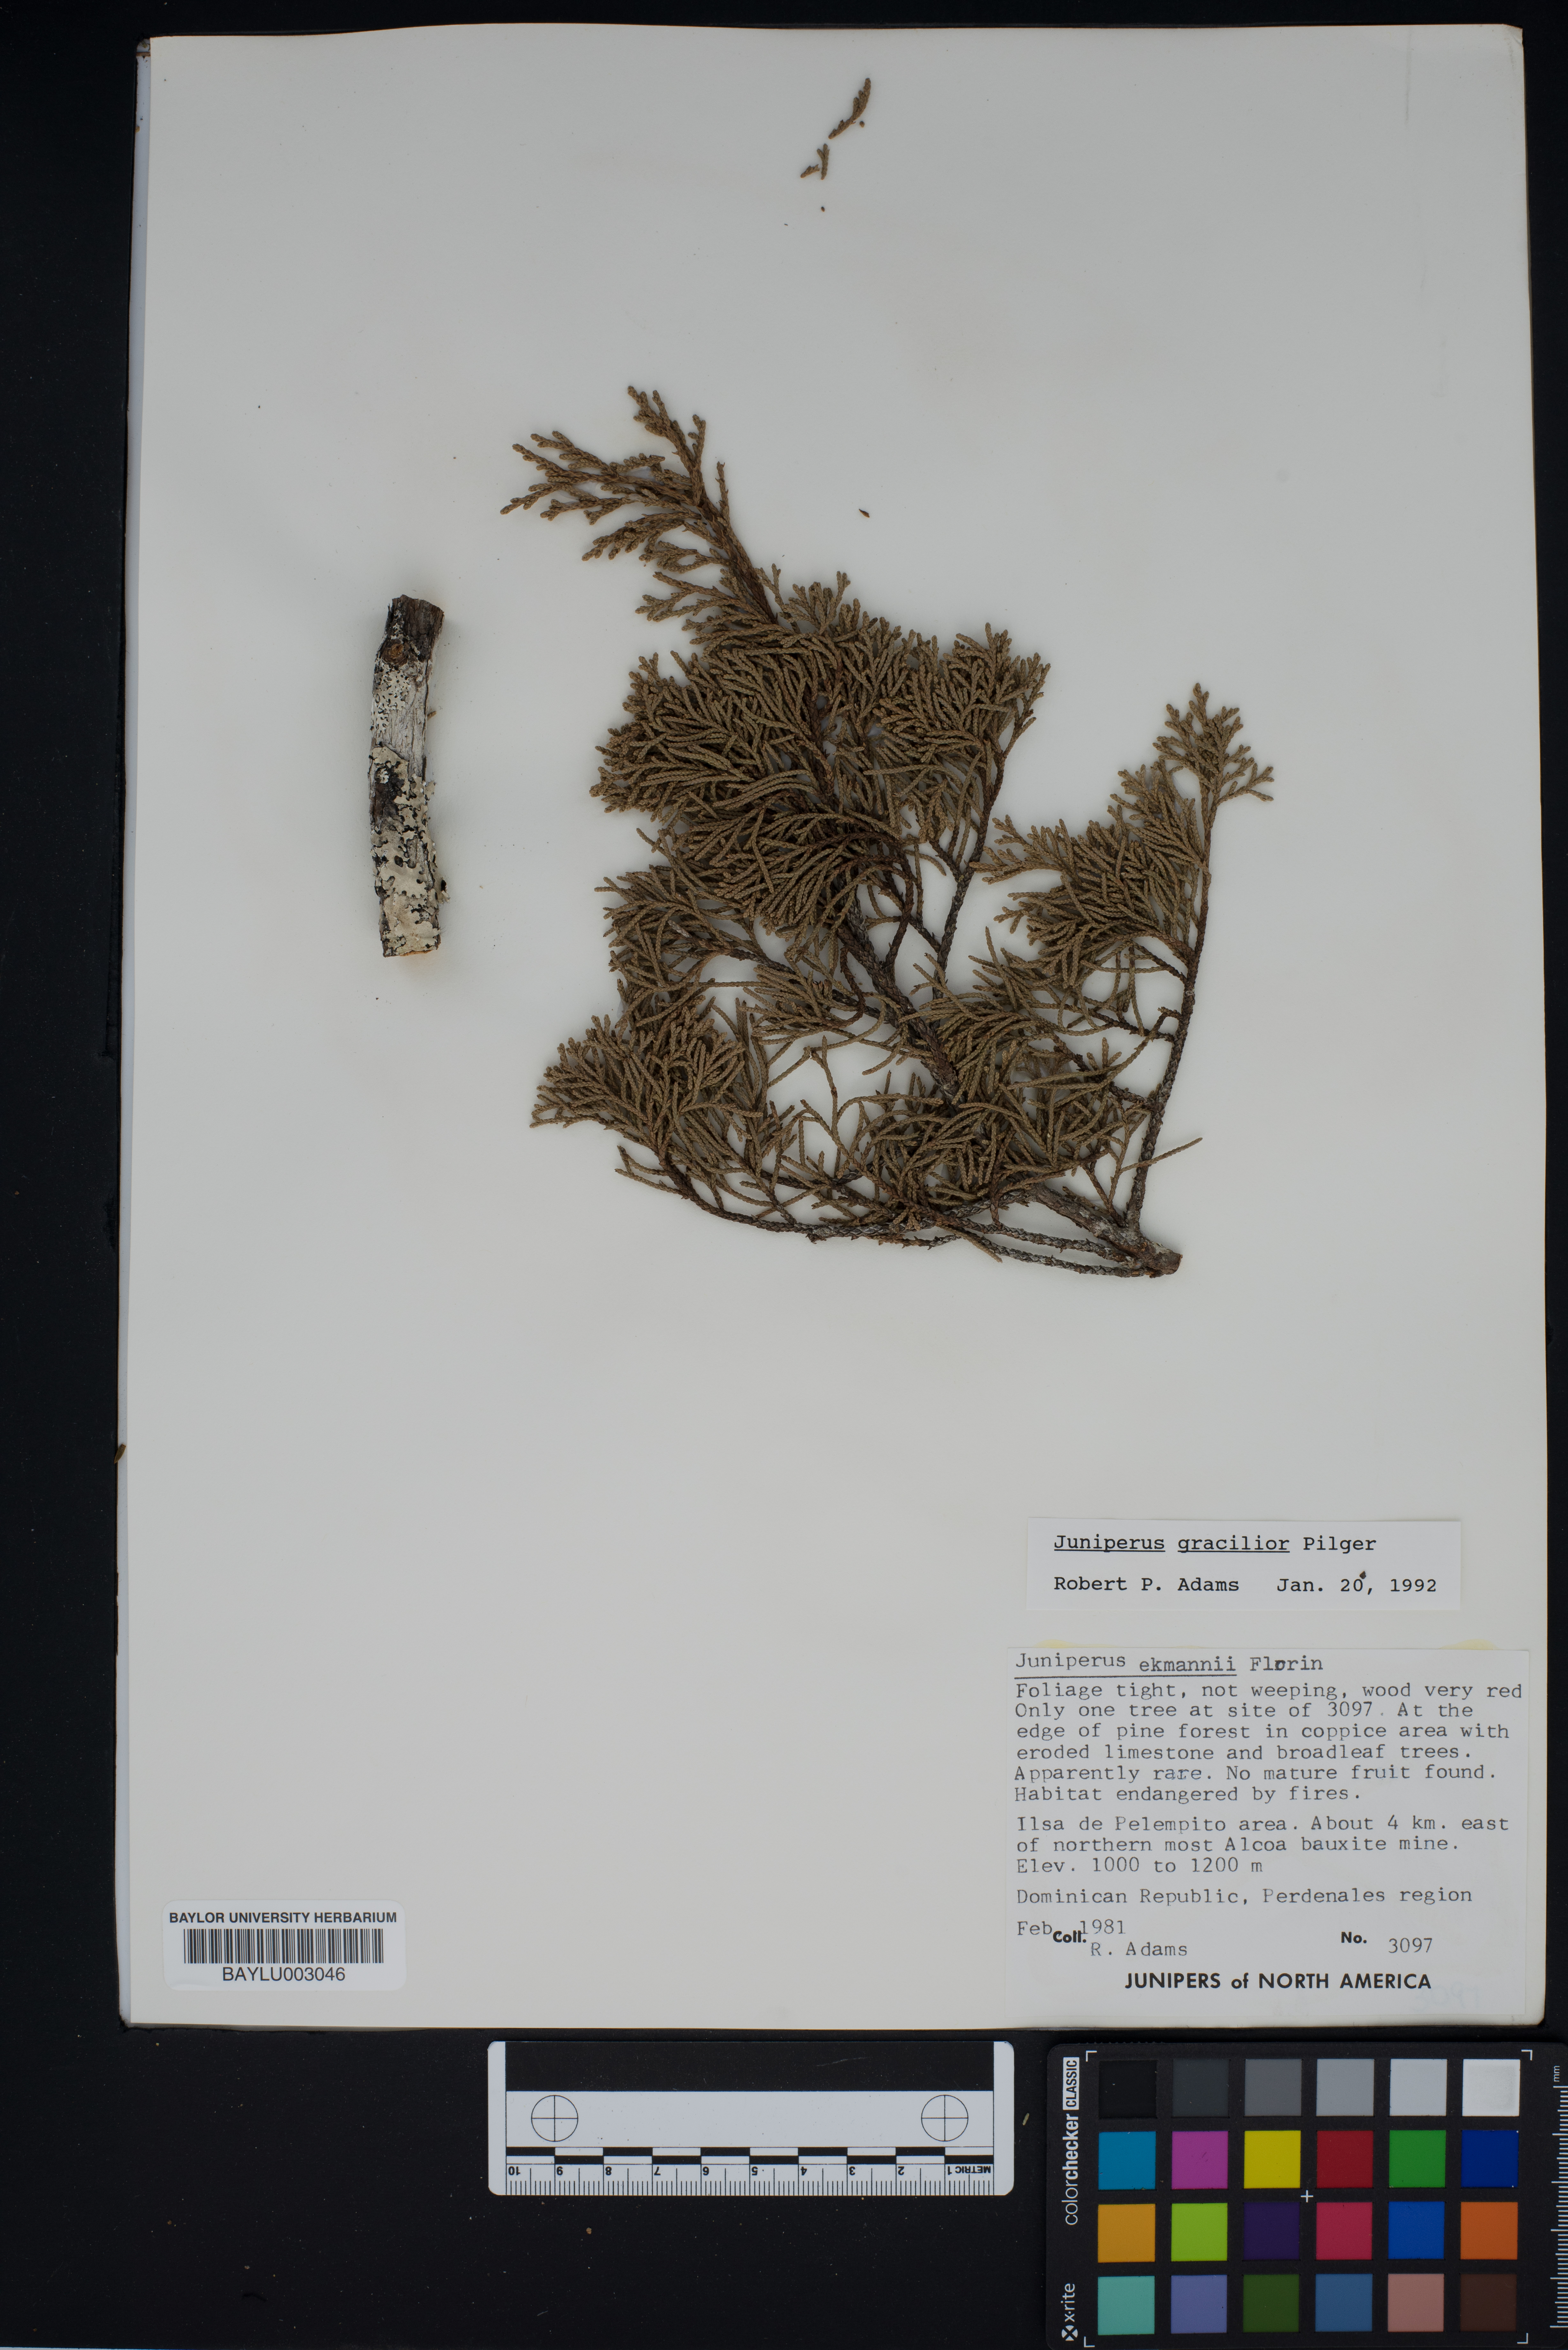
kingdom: Plantae
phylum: Tracheophyta
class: Pinopsida
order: Pinales
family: Cupressaceae
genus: Juniperus
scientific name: Juniperus gracilior
